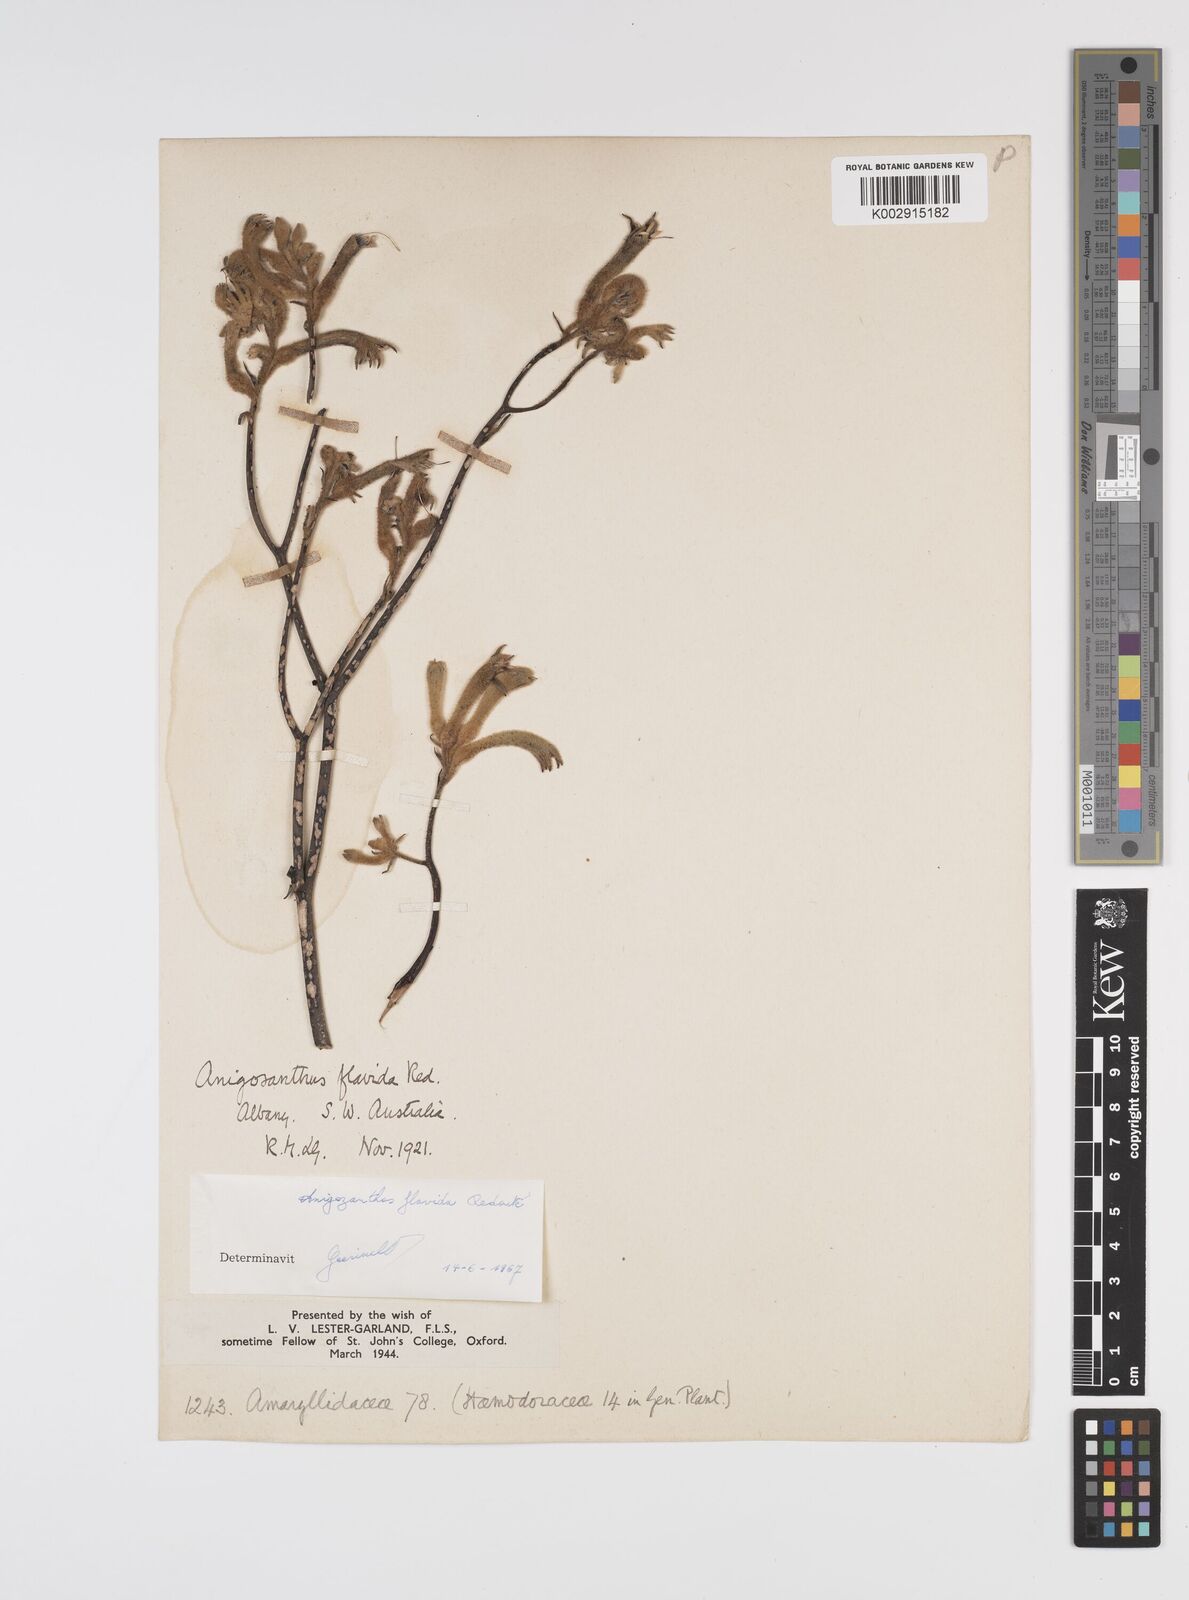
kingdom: Plantae
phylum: Tracheophyta
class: Liliopsida
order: Commelinales
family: Haemodoraceae
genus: Anigozanthos
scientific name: Anigozanthos flavidus
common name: Evergreen kangaroo-paw
